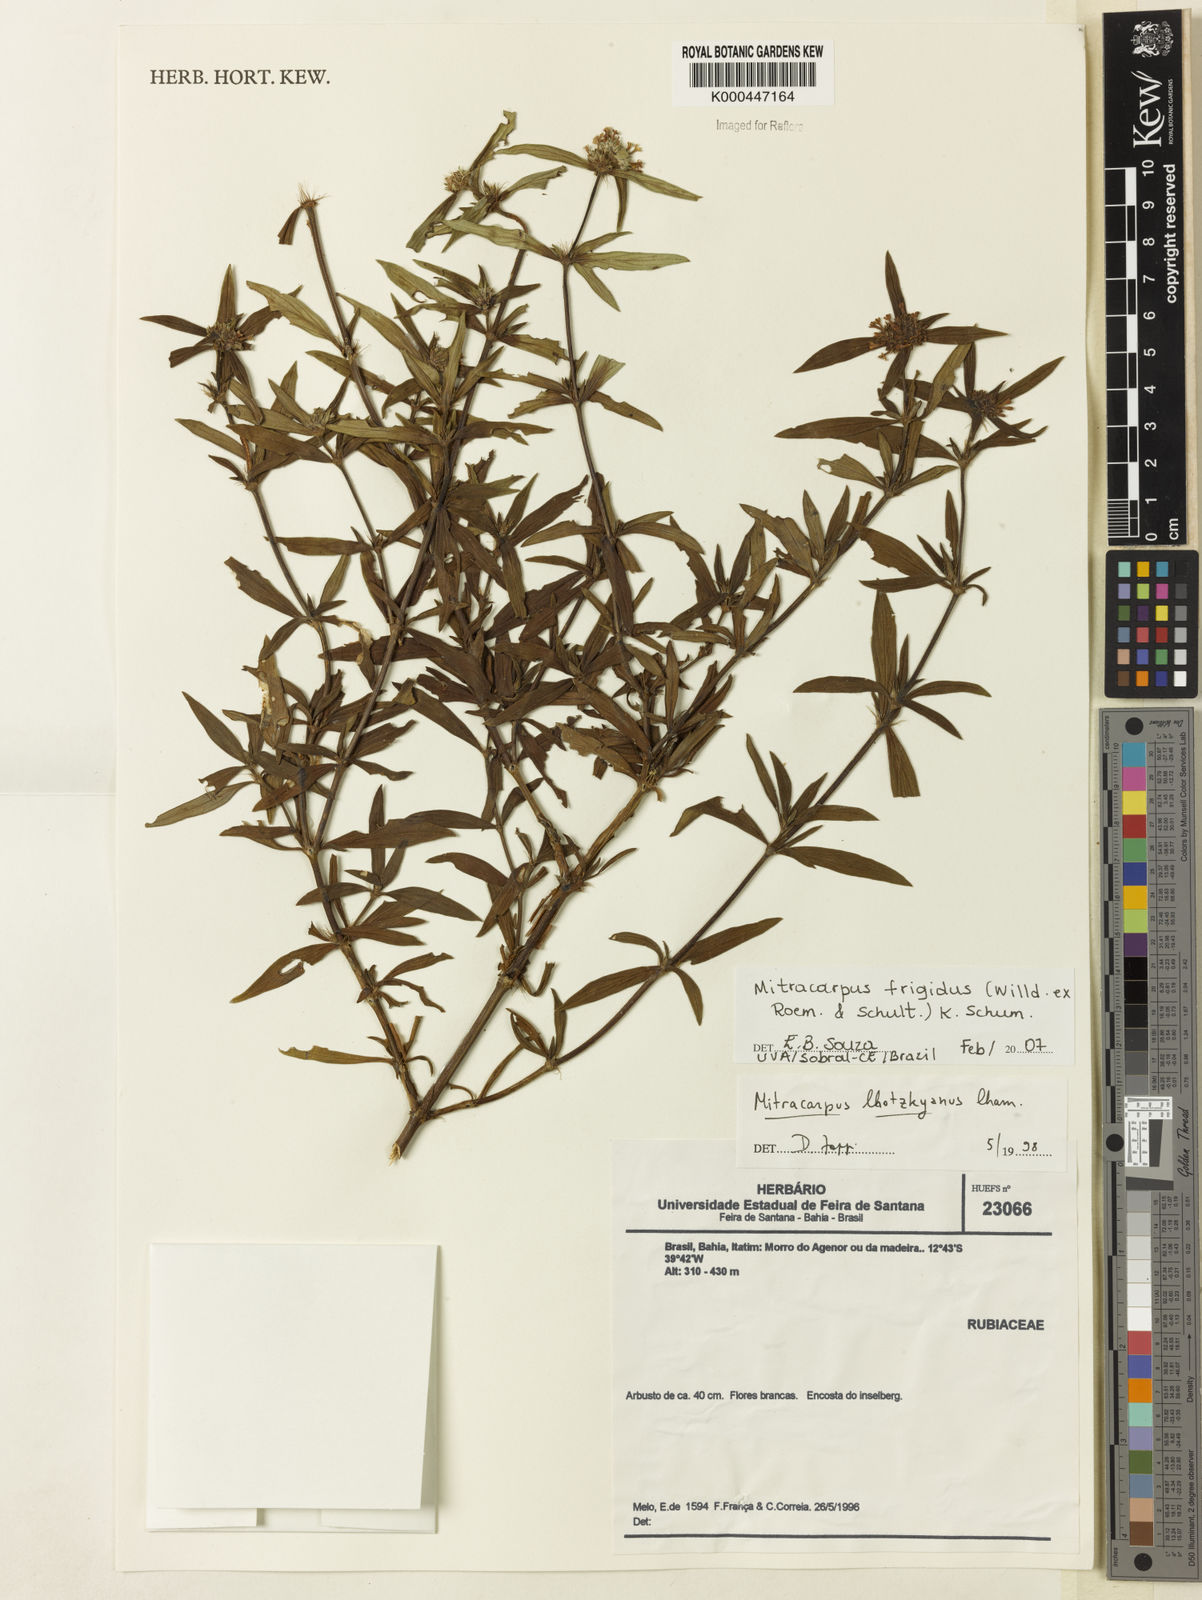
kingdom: Plantae
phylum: Tracheophyta
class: Magnoliopsida
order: Gentianales
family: Rubiaceae
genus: Mitracarpus
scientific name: Mitracarpus frigidus
